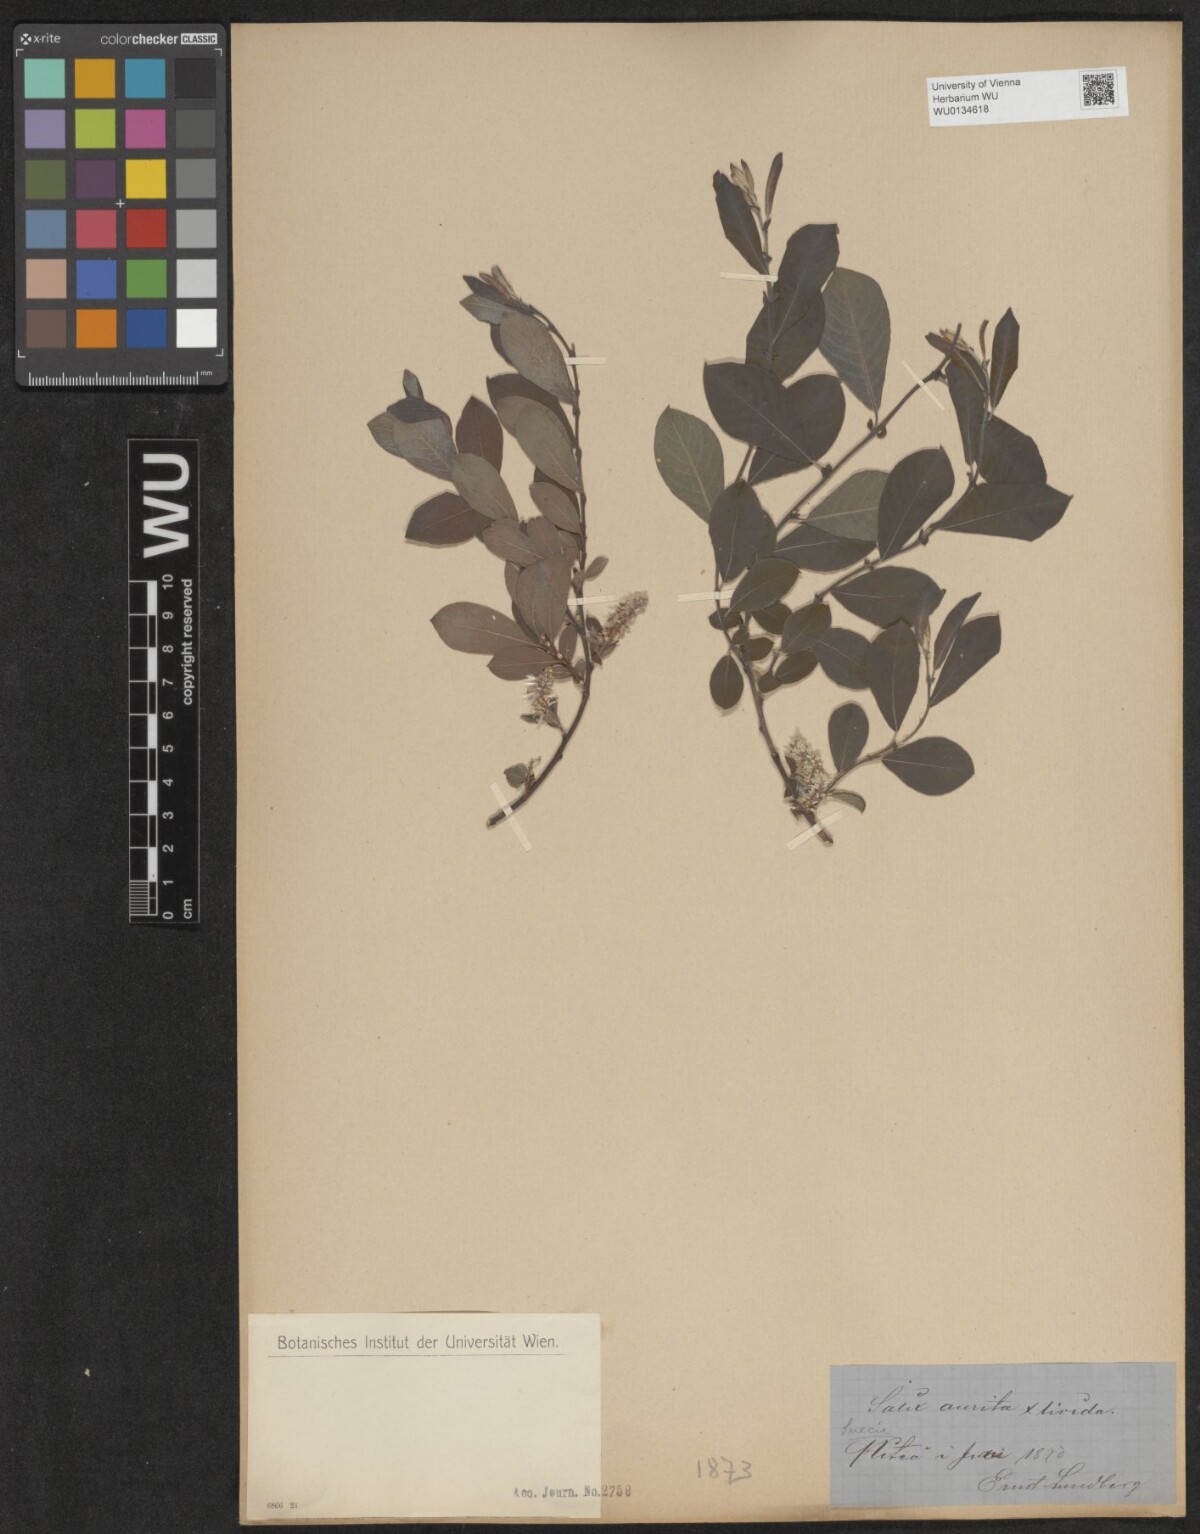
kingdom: Plantae
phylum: Tracheophyta
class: Magnoliopsida
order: Malpighiales
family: Salicaceae
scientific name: Salicaceae
